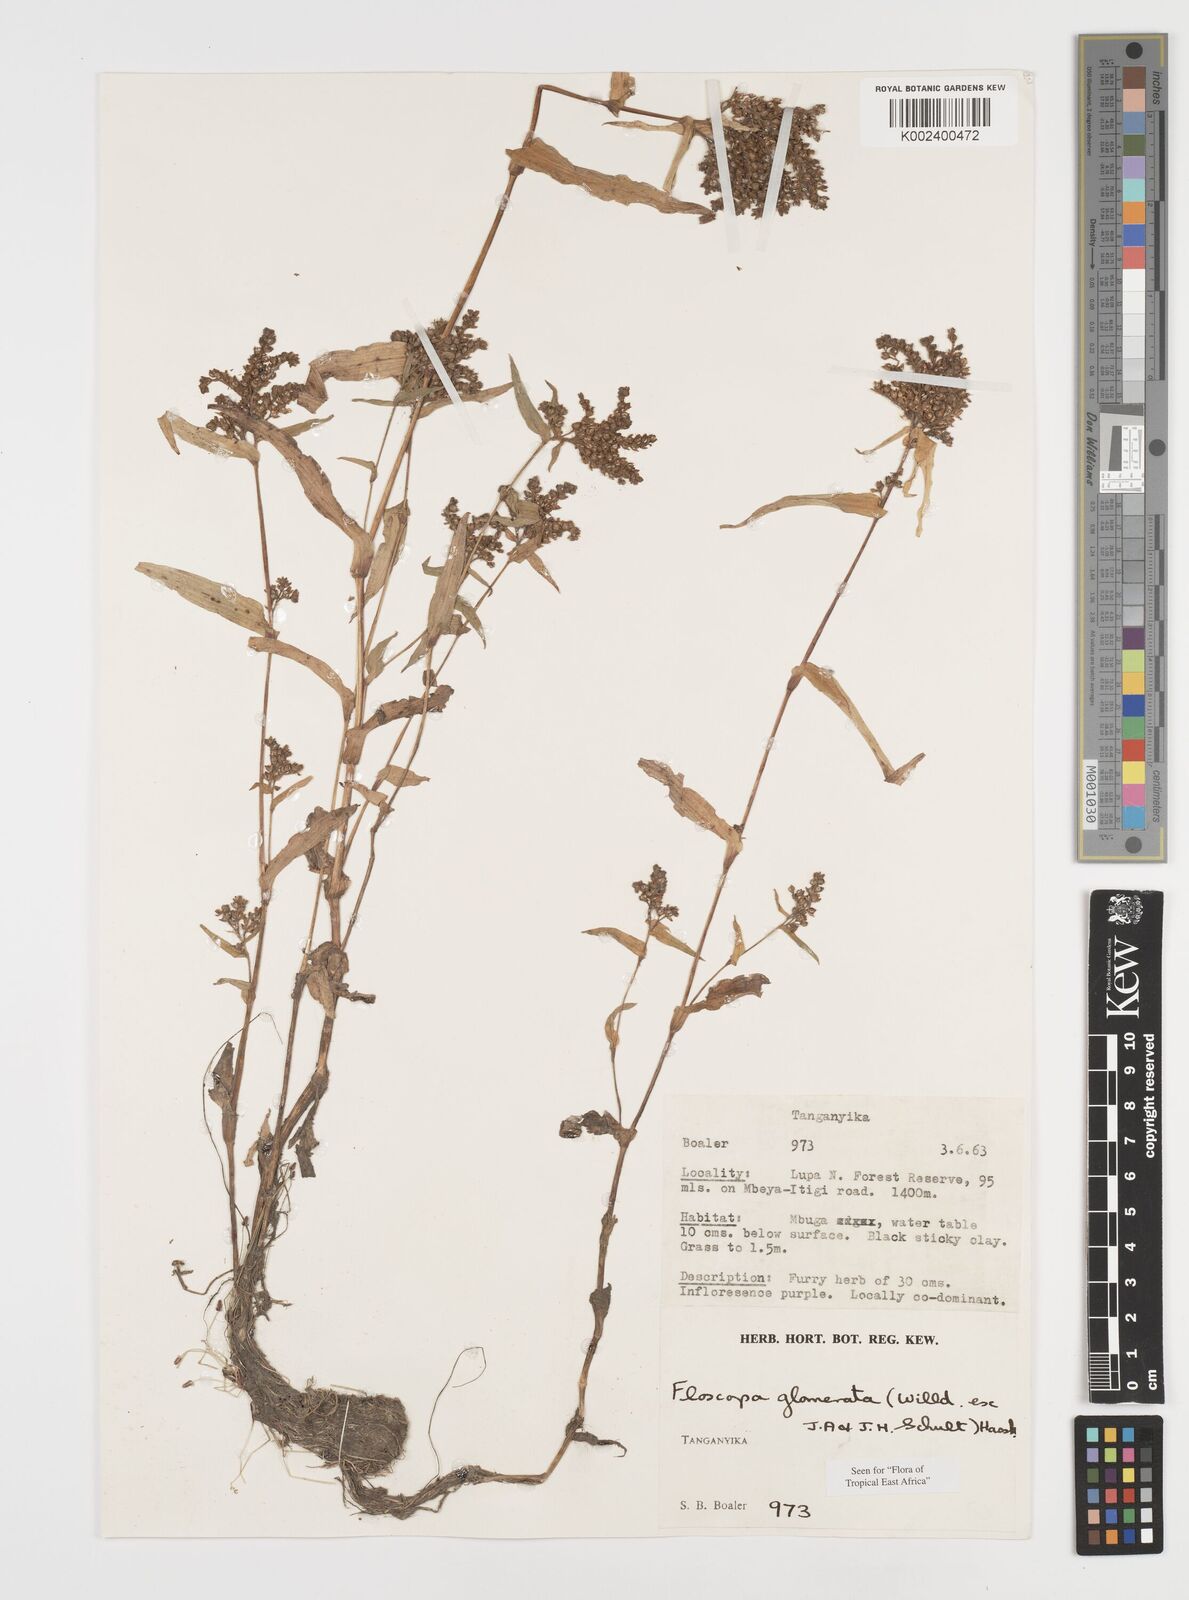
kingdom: Plantae
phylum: Tracheophyta
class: Liliopsida
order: Commelinales
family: Commelinaceae
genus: Floscopa
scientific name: Floscopa glomerata
